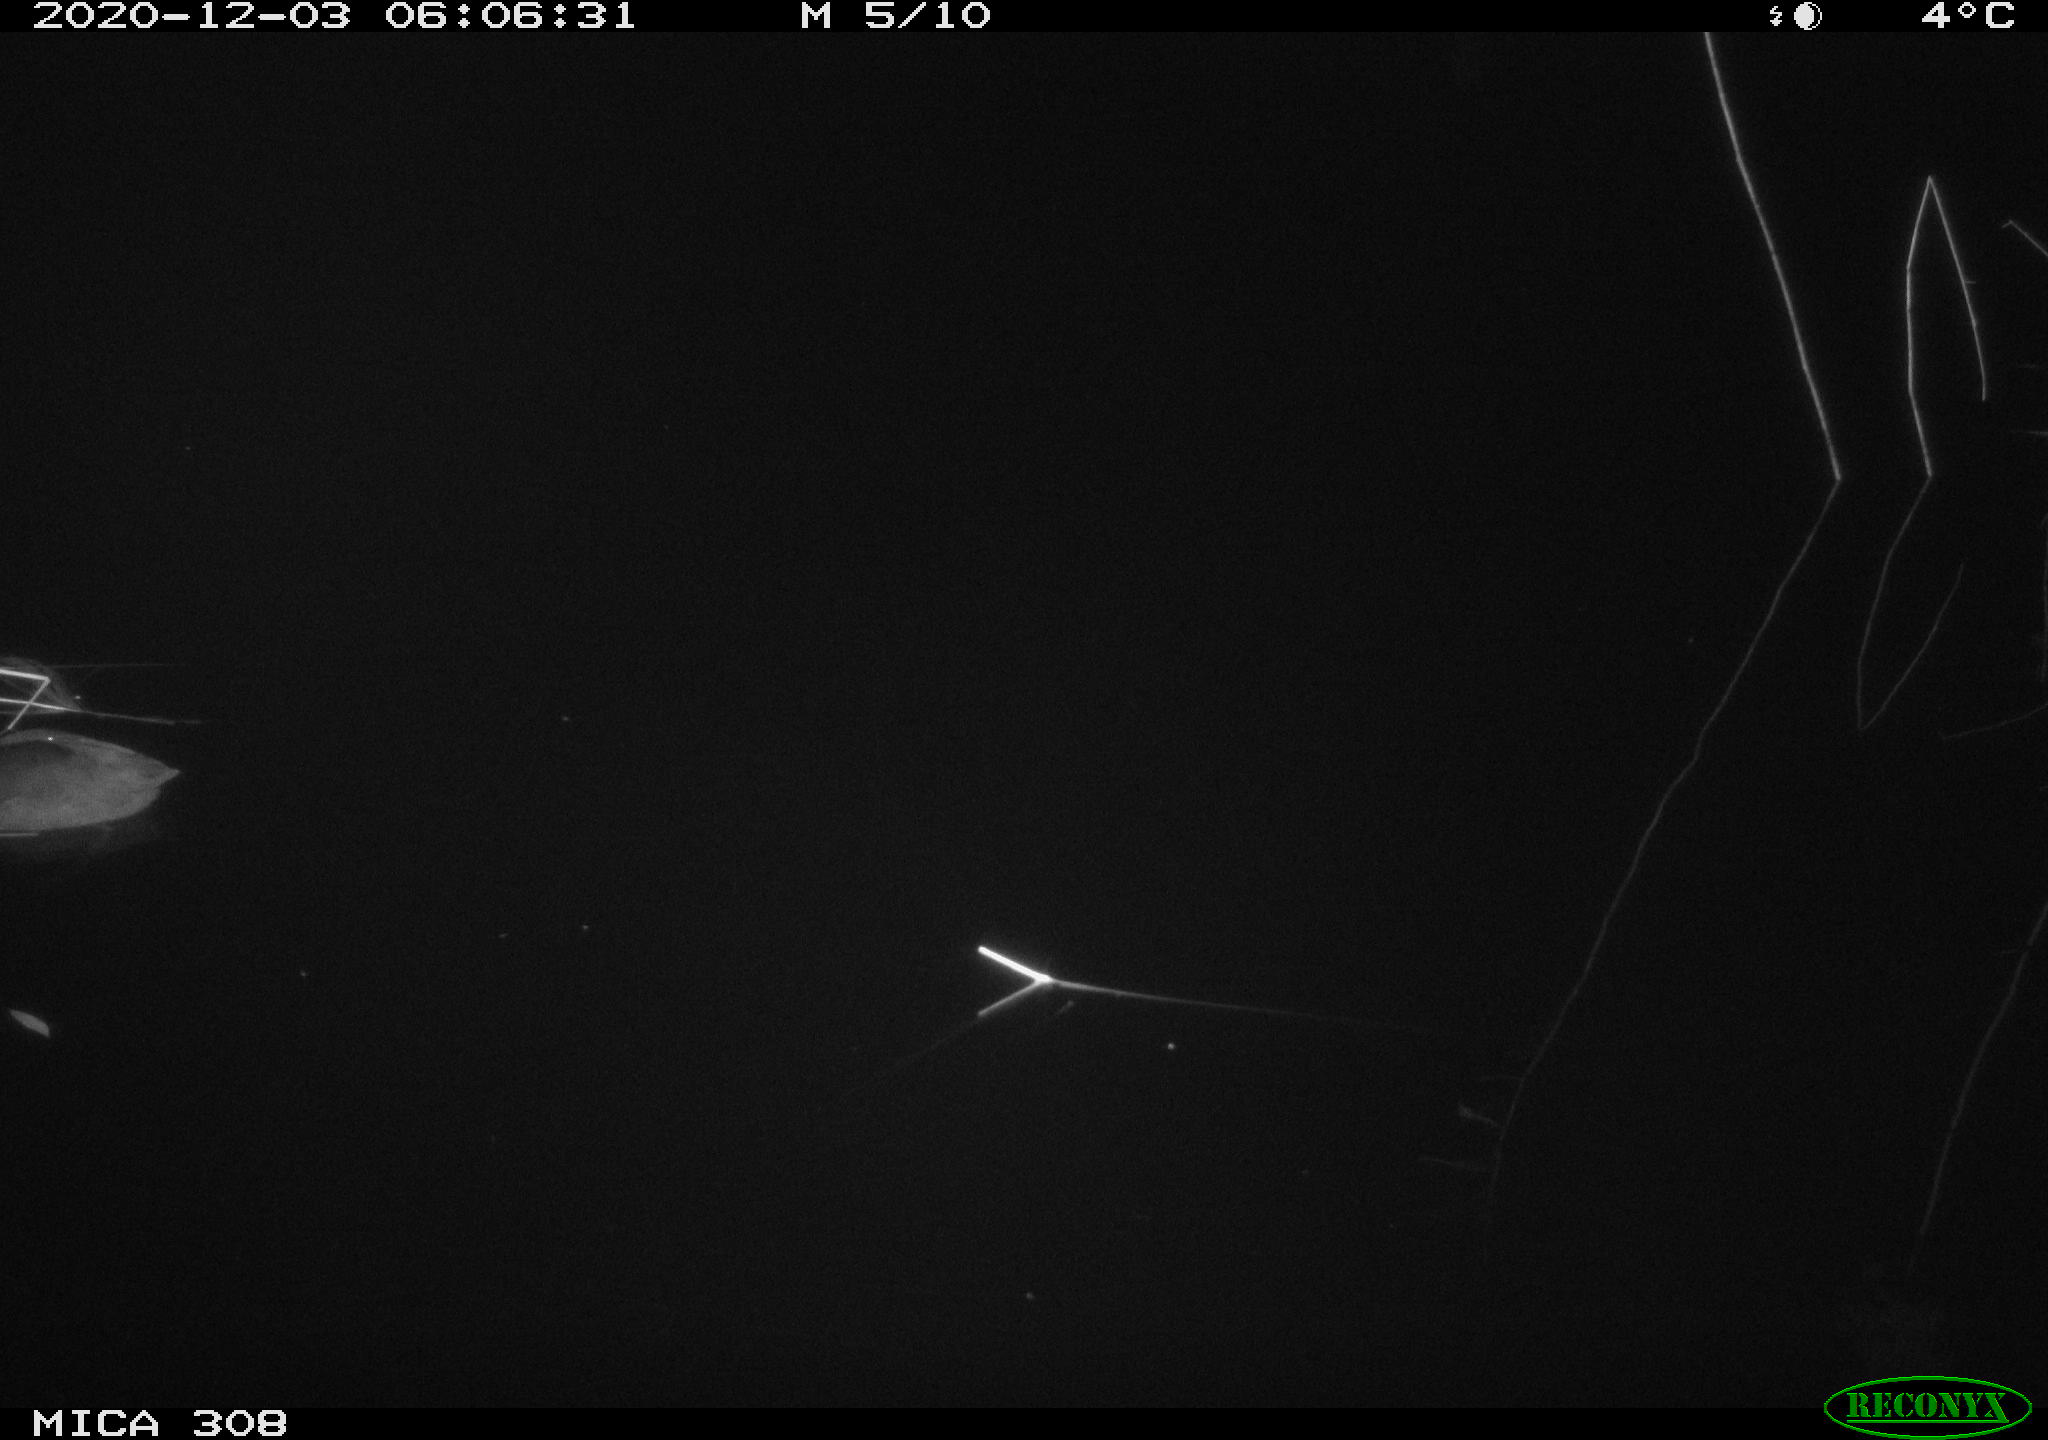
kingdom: Animalia
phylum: Chordata
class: Aves
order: Gruiformes
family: Rallidae
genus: Fulica
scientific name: Fulica atra
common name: Eurasian coot
